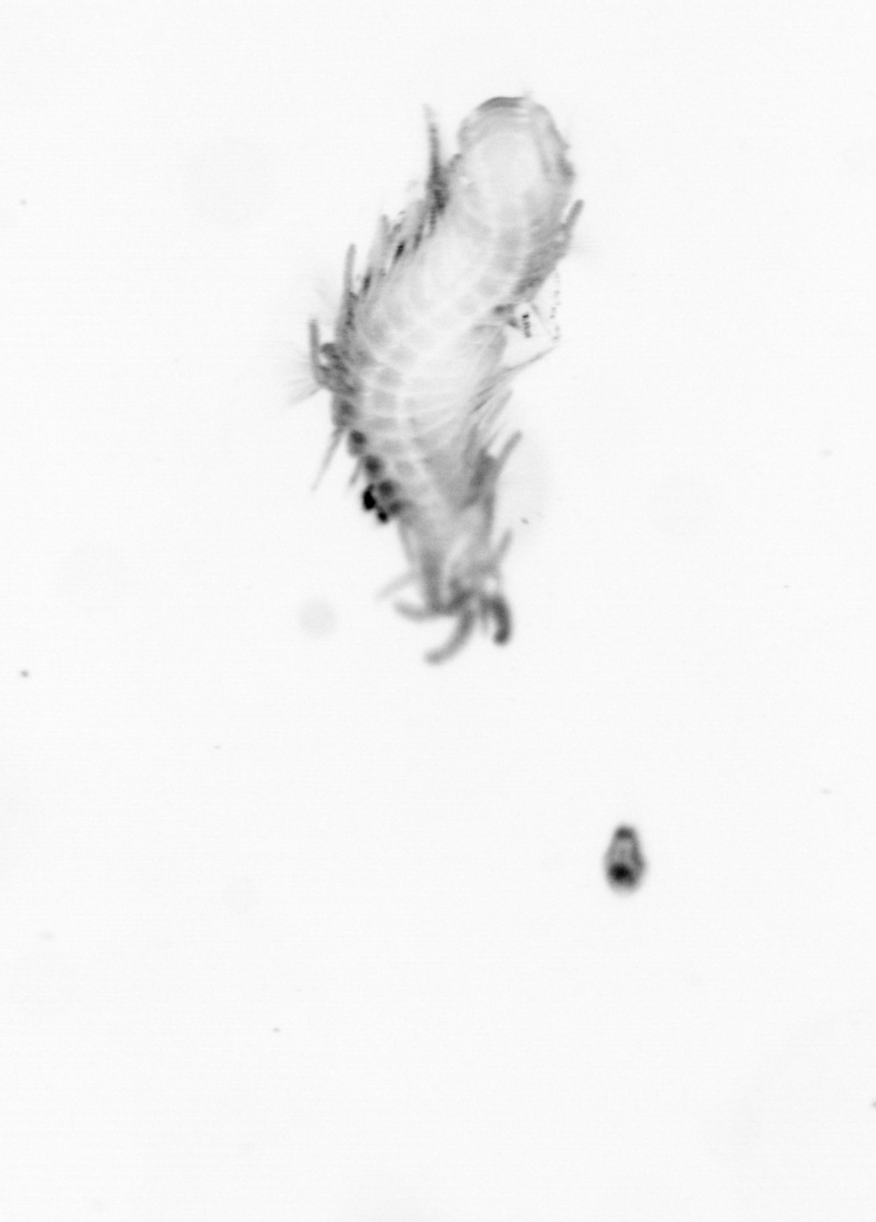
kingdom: Animalia
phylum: Annelida
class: Polychaeta
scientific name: Polychaeta
